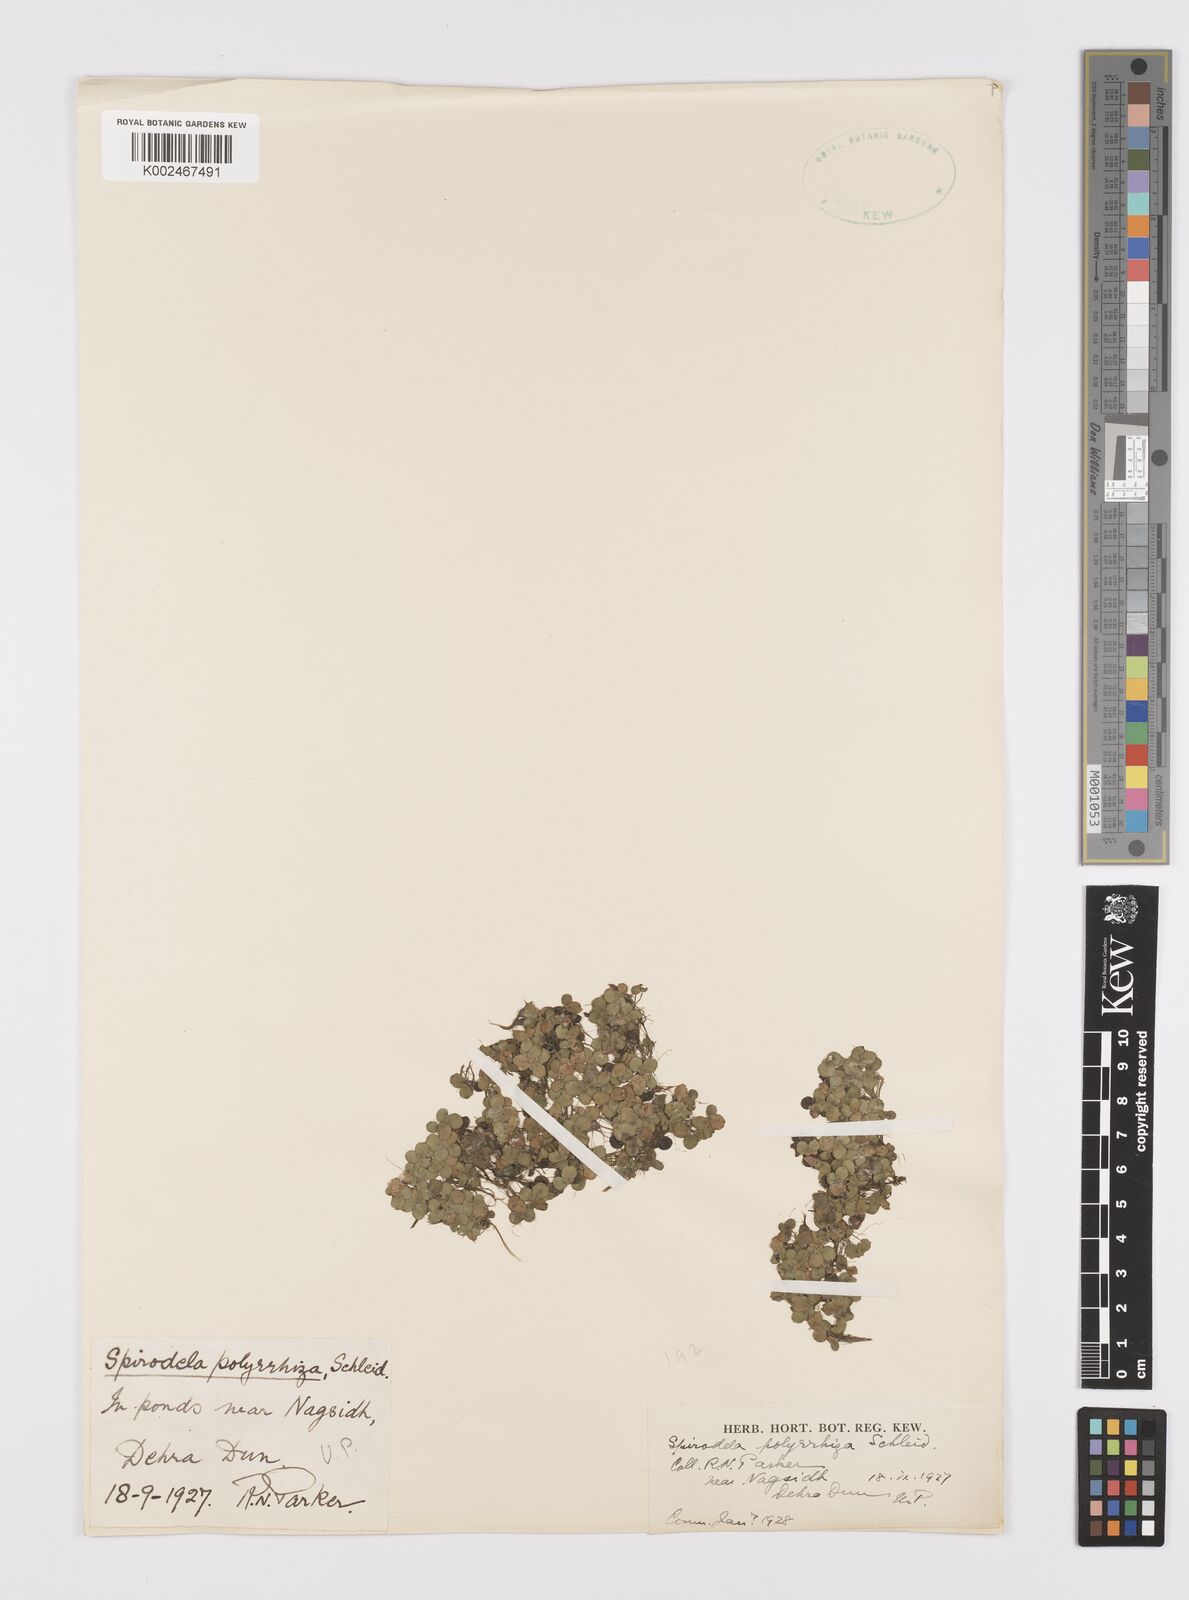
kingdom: Plantae
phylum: Tracheophyta
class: Liliopsida
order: Alismatales
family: Araceae
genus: Spirodela
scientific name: Spirodela polyrhiza
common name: Great duckweed
